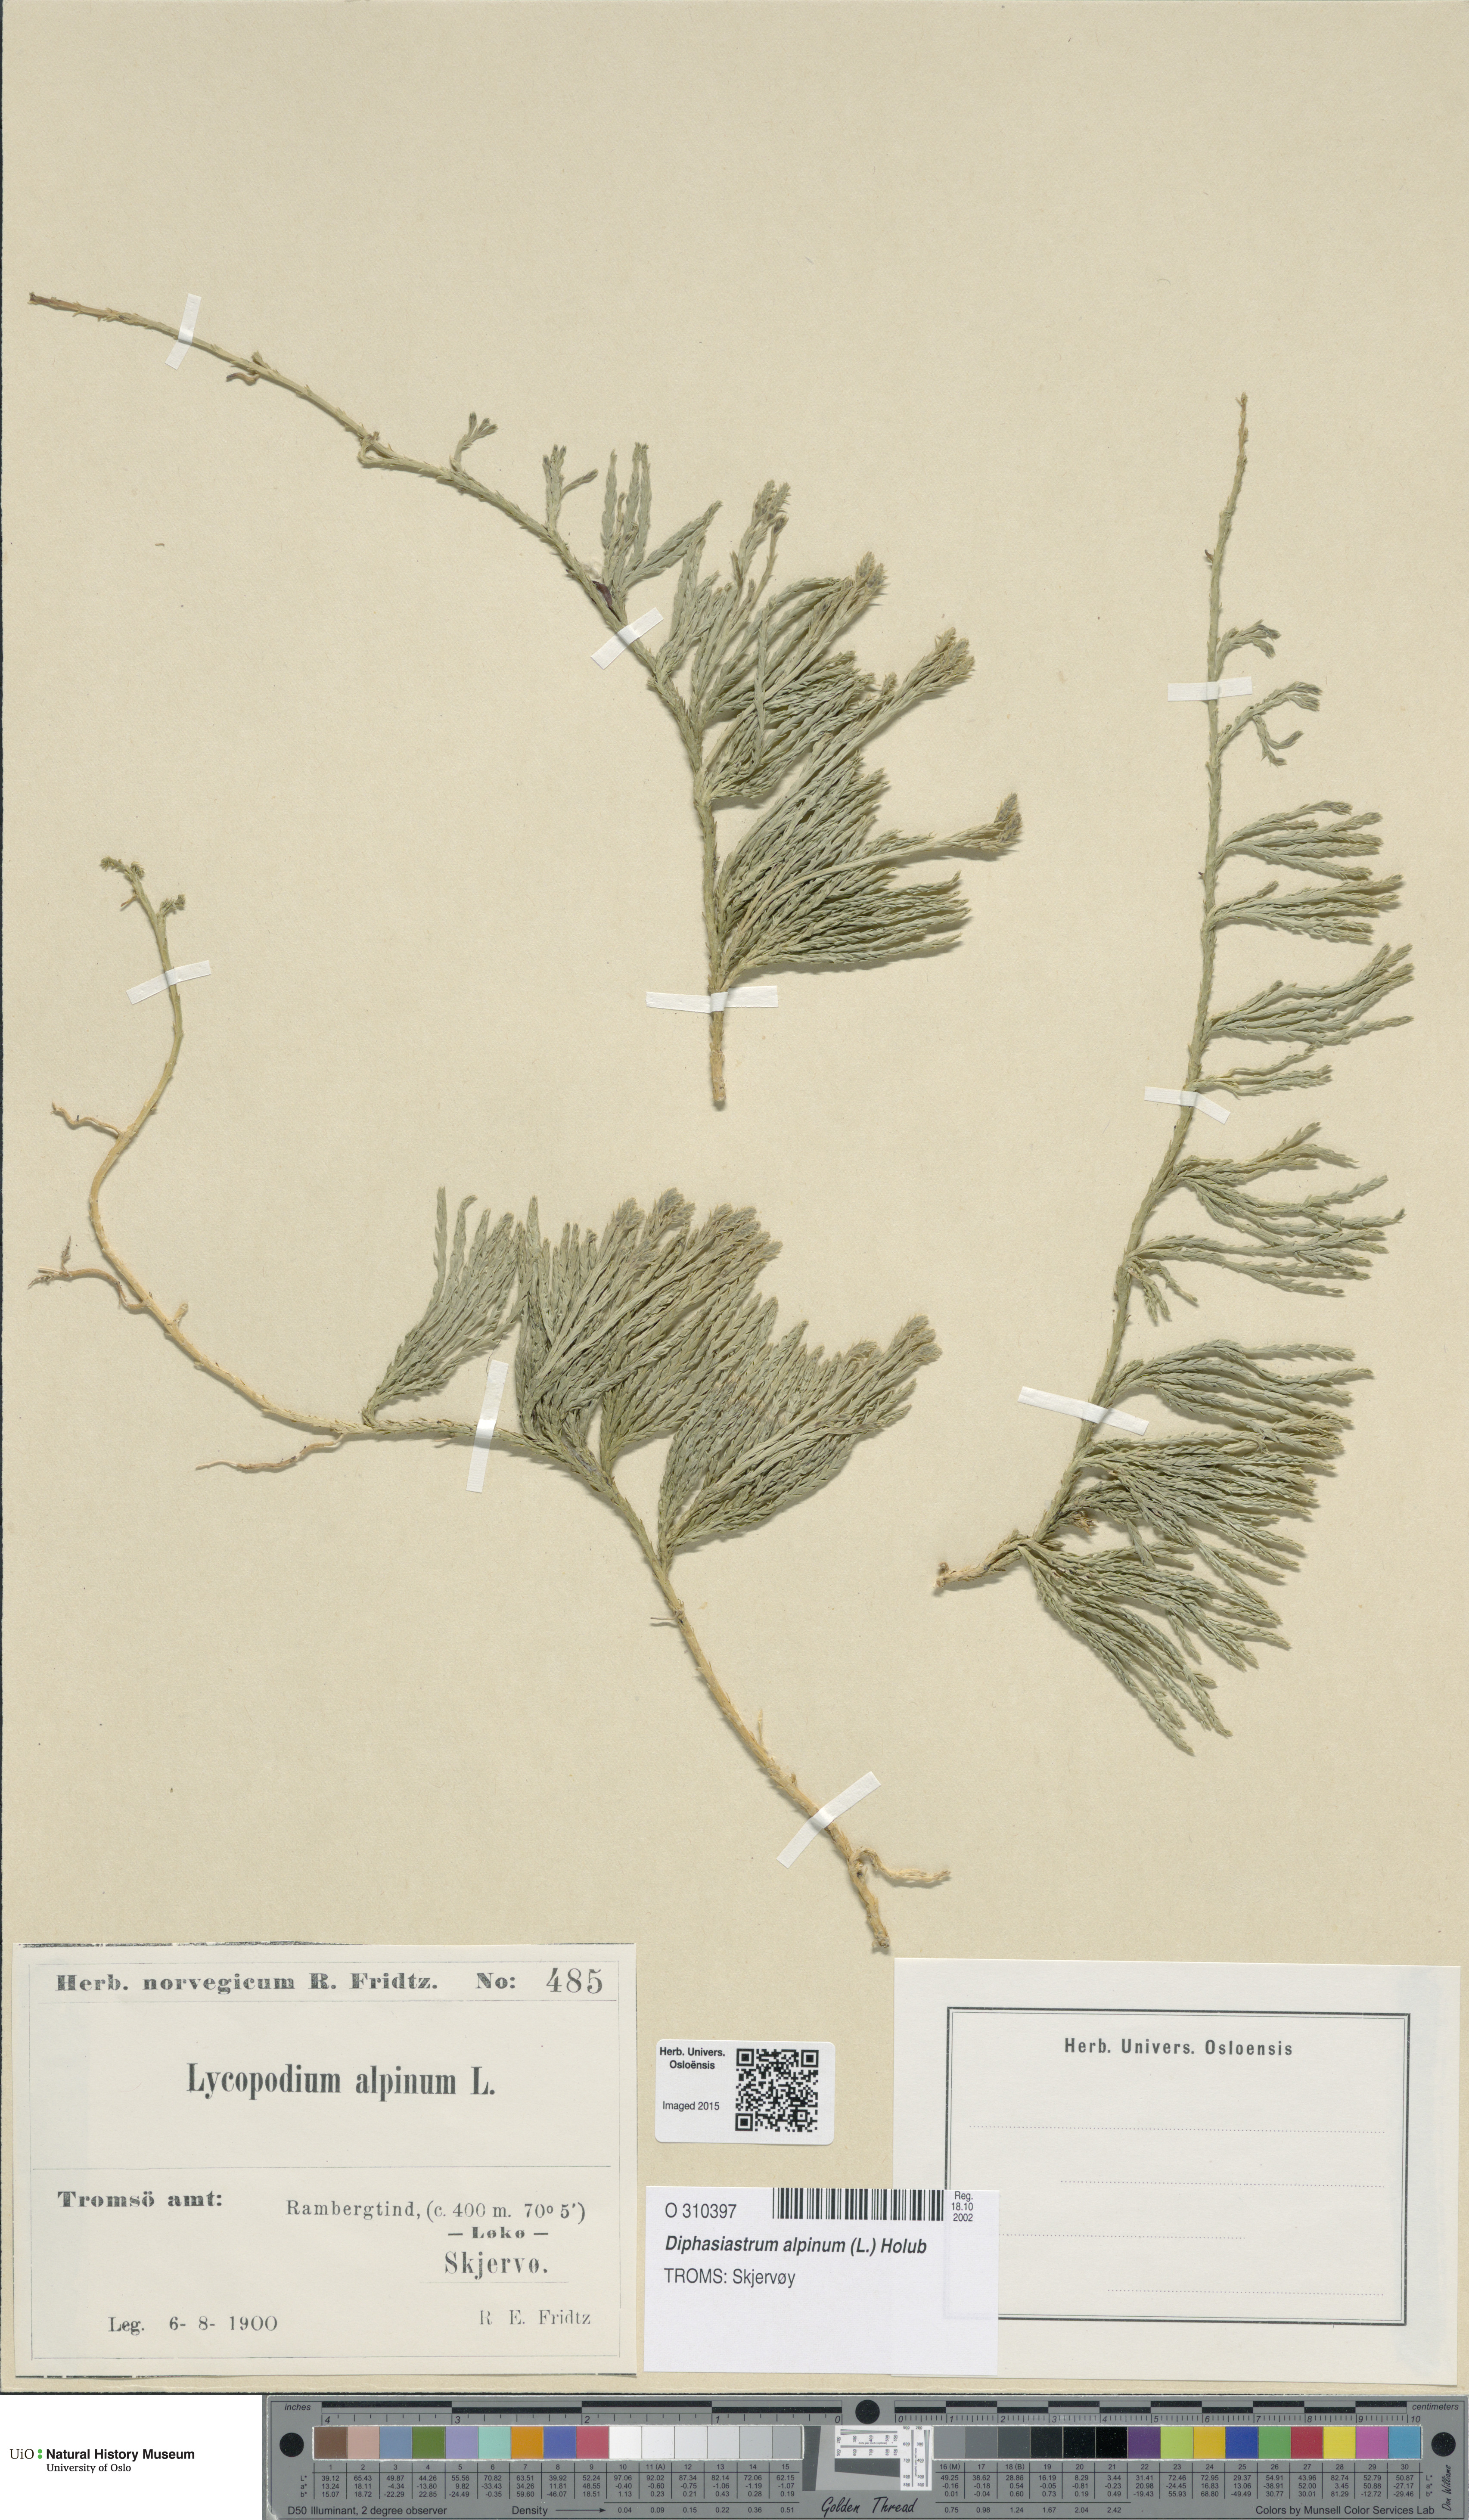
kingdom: Plantae
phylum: Tracheophyta
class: Lycopodiopsida
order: Lycopodiales
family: Lycopodiaceae
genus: Diphasiastrum
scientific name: Diphasiastrum alpinum
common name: Alpine clubmoss
